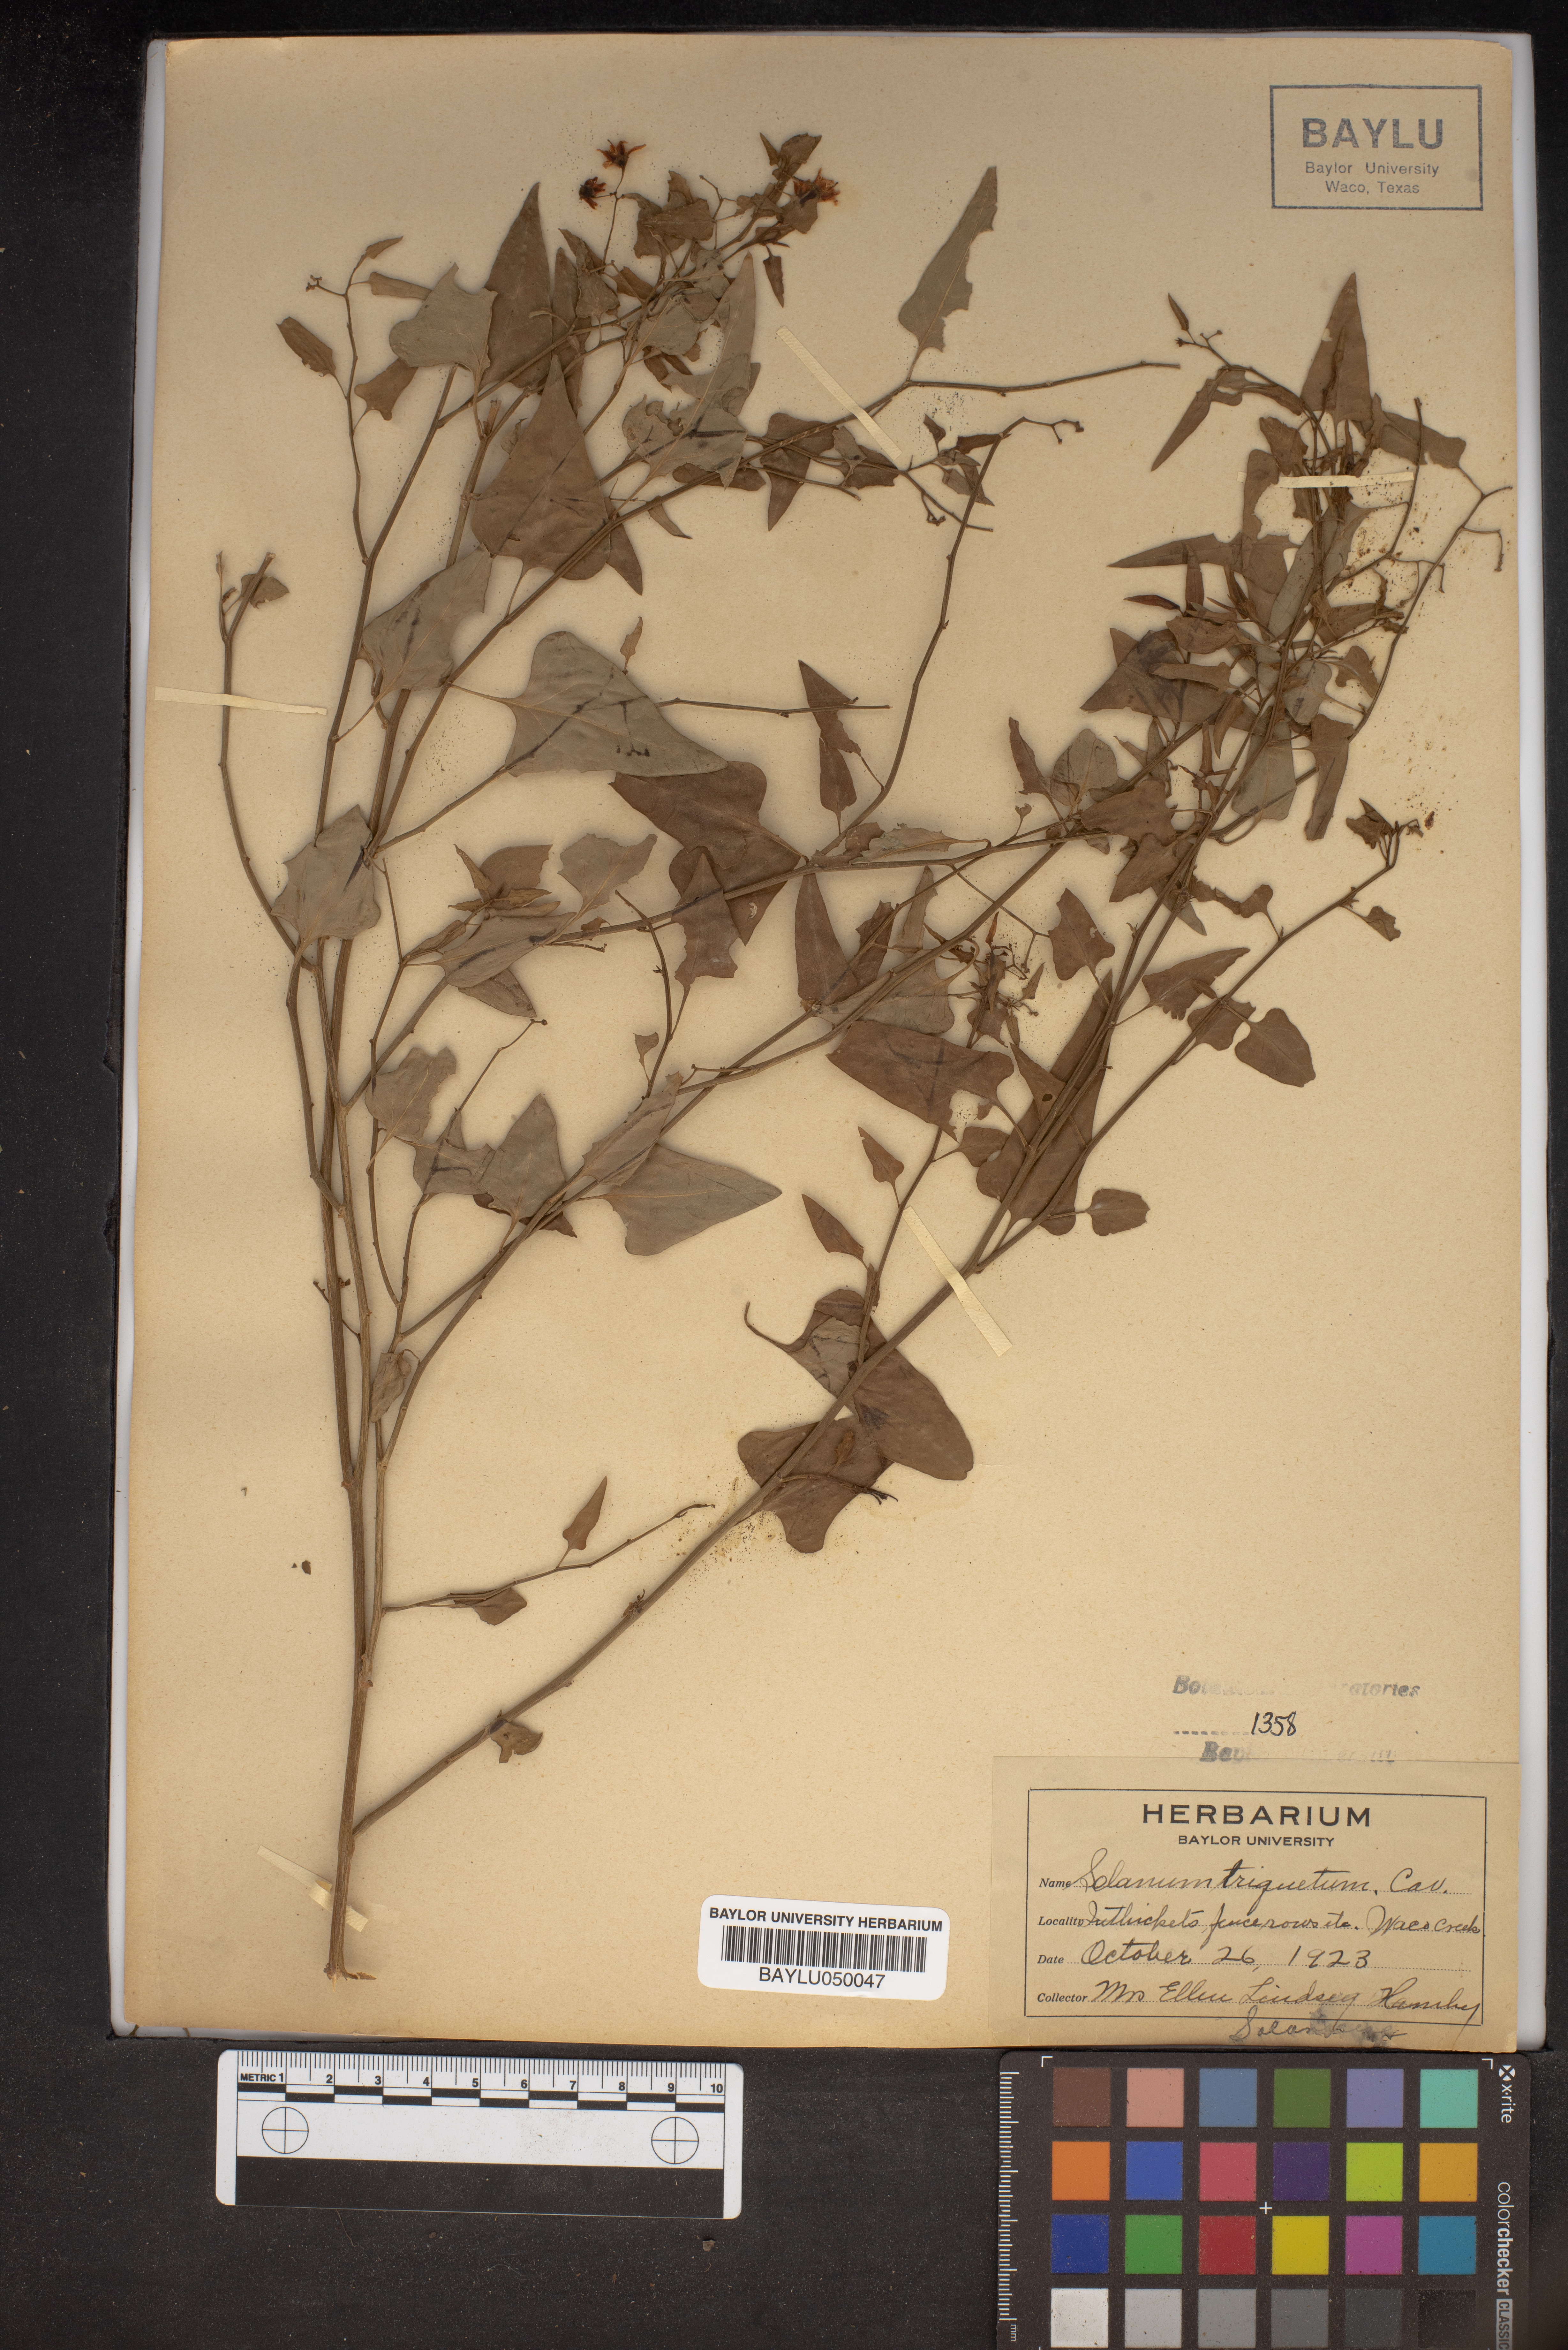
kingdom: Plantae
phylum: Tracheophyta
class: Magnoliopsida
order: Solanales
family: Solanaceae
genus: Solanum
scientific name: Solanum triquetrum
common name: Texas nightshade
